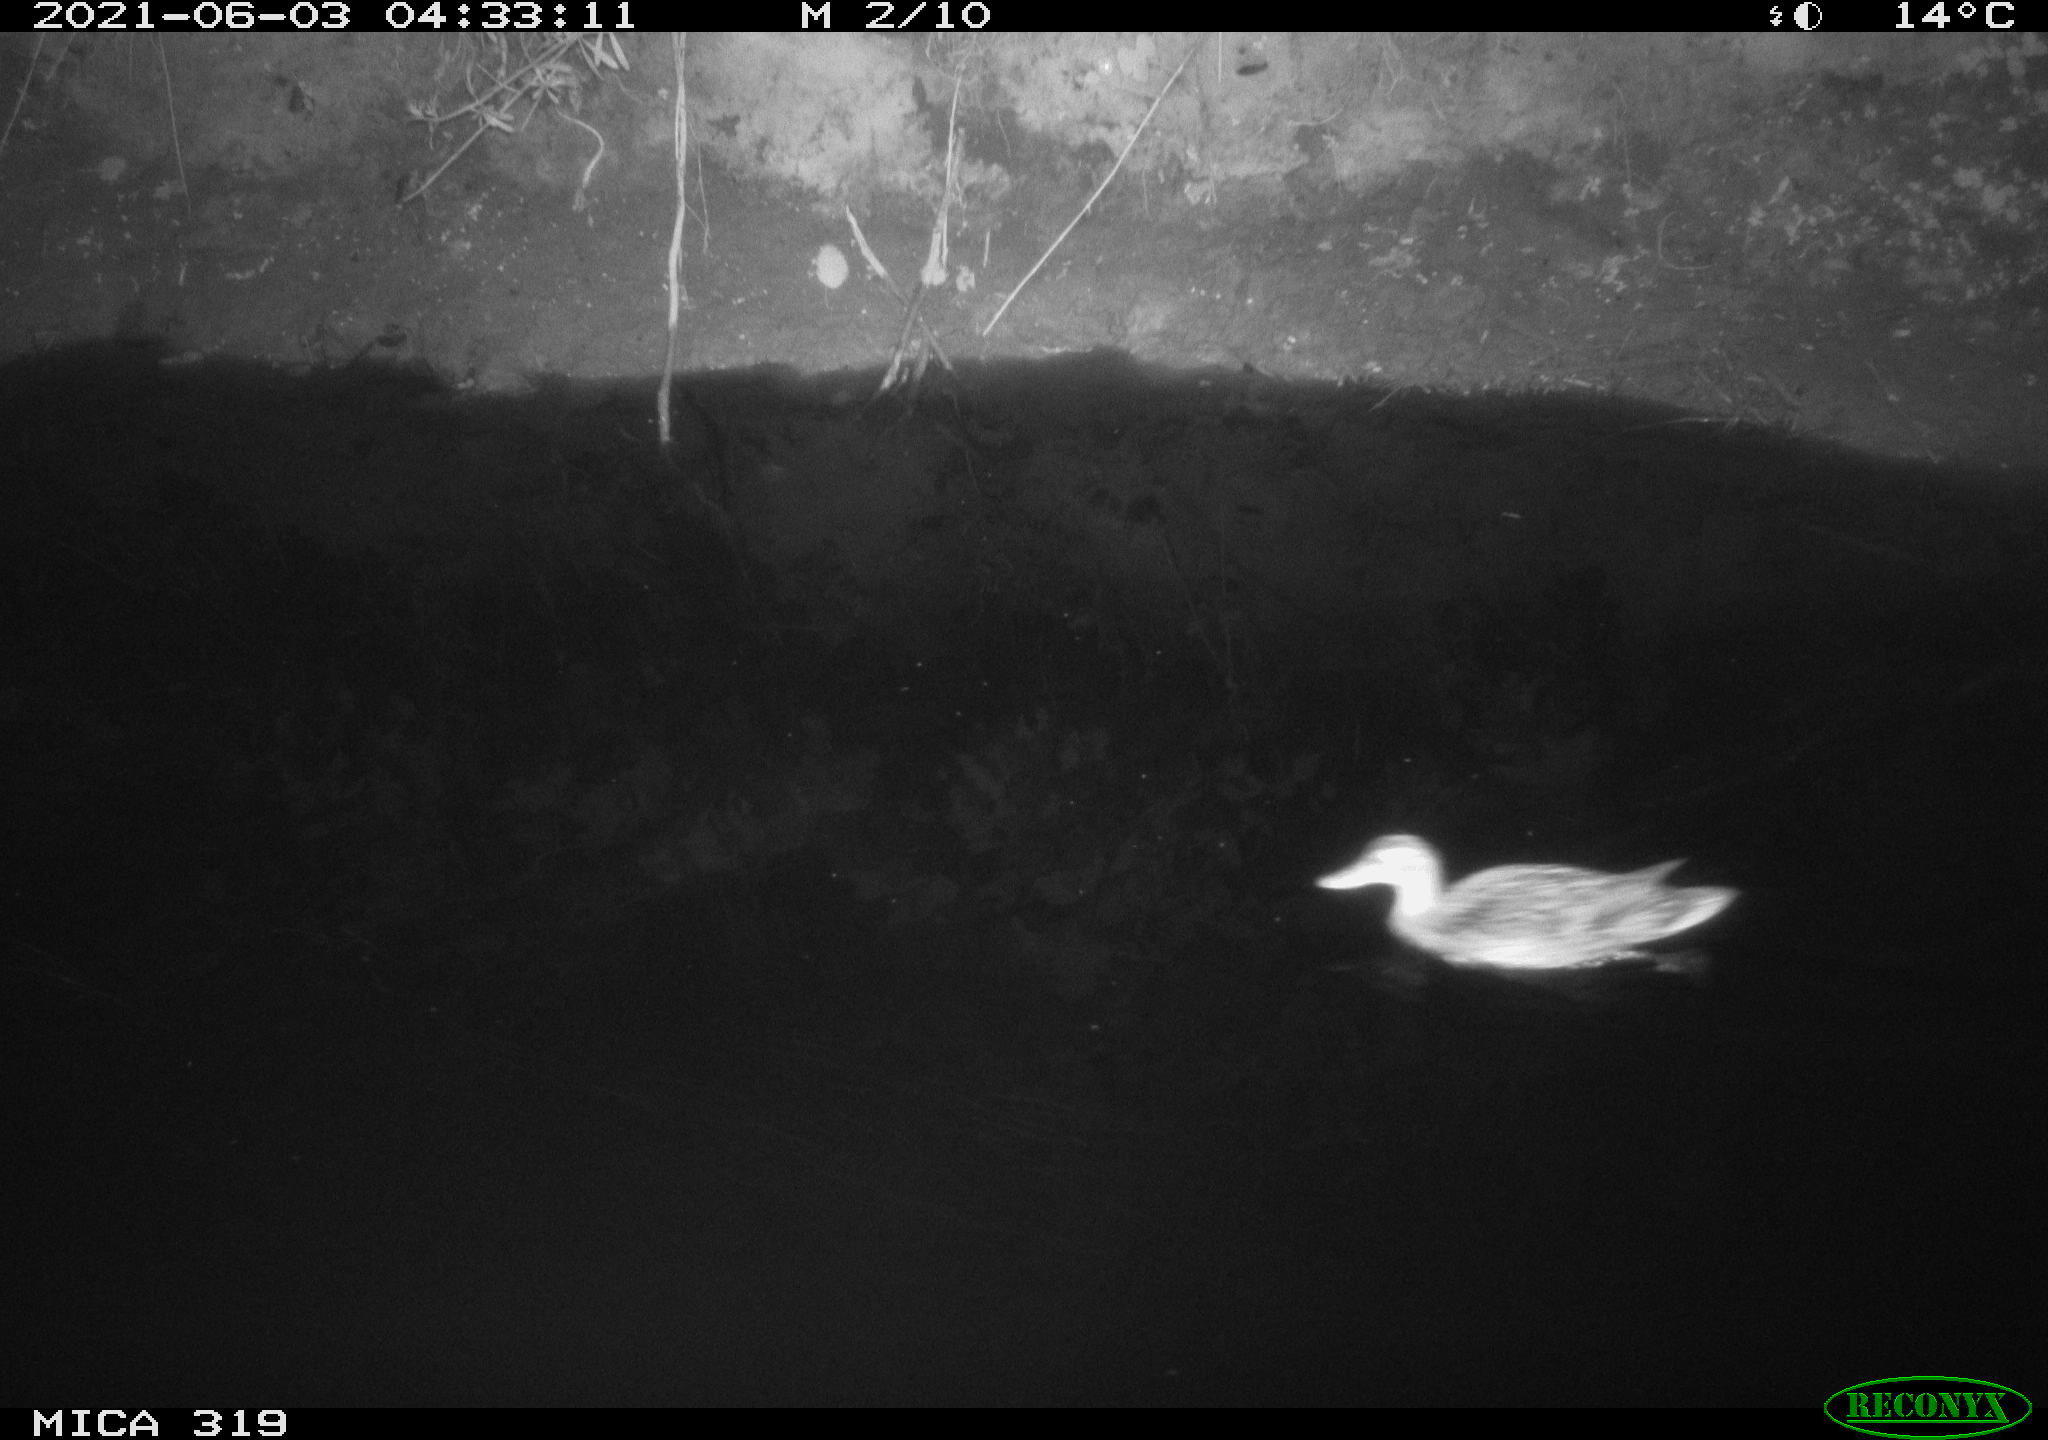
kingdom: Animalia
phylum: Chordata
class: Aves
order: Anseriformes
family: Anatidae
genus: Anas
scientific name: Anas platyrhynchos
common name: Mallard
